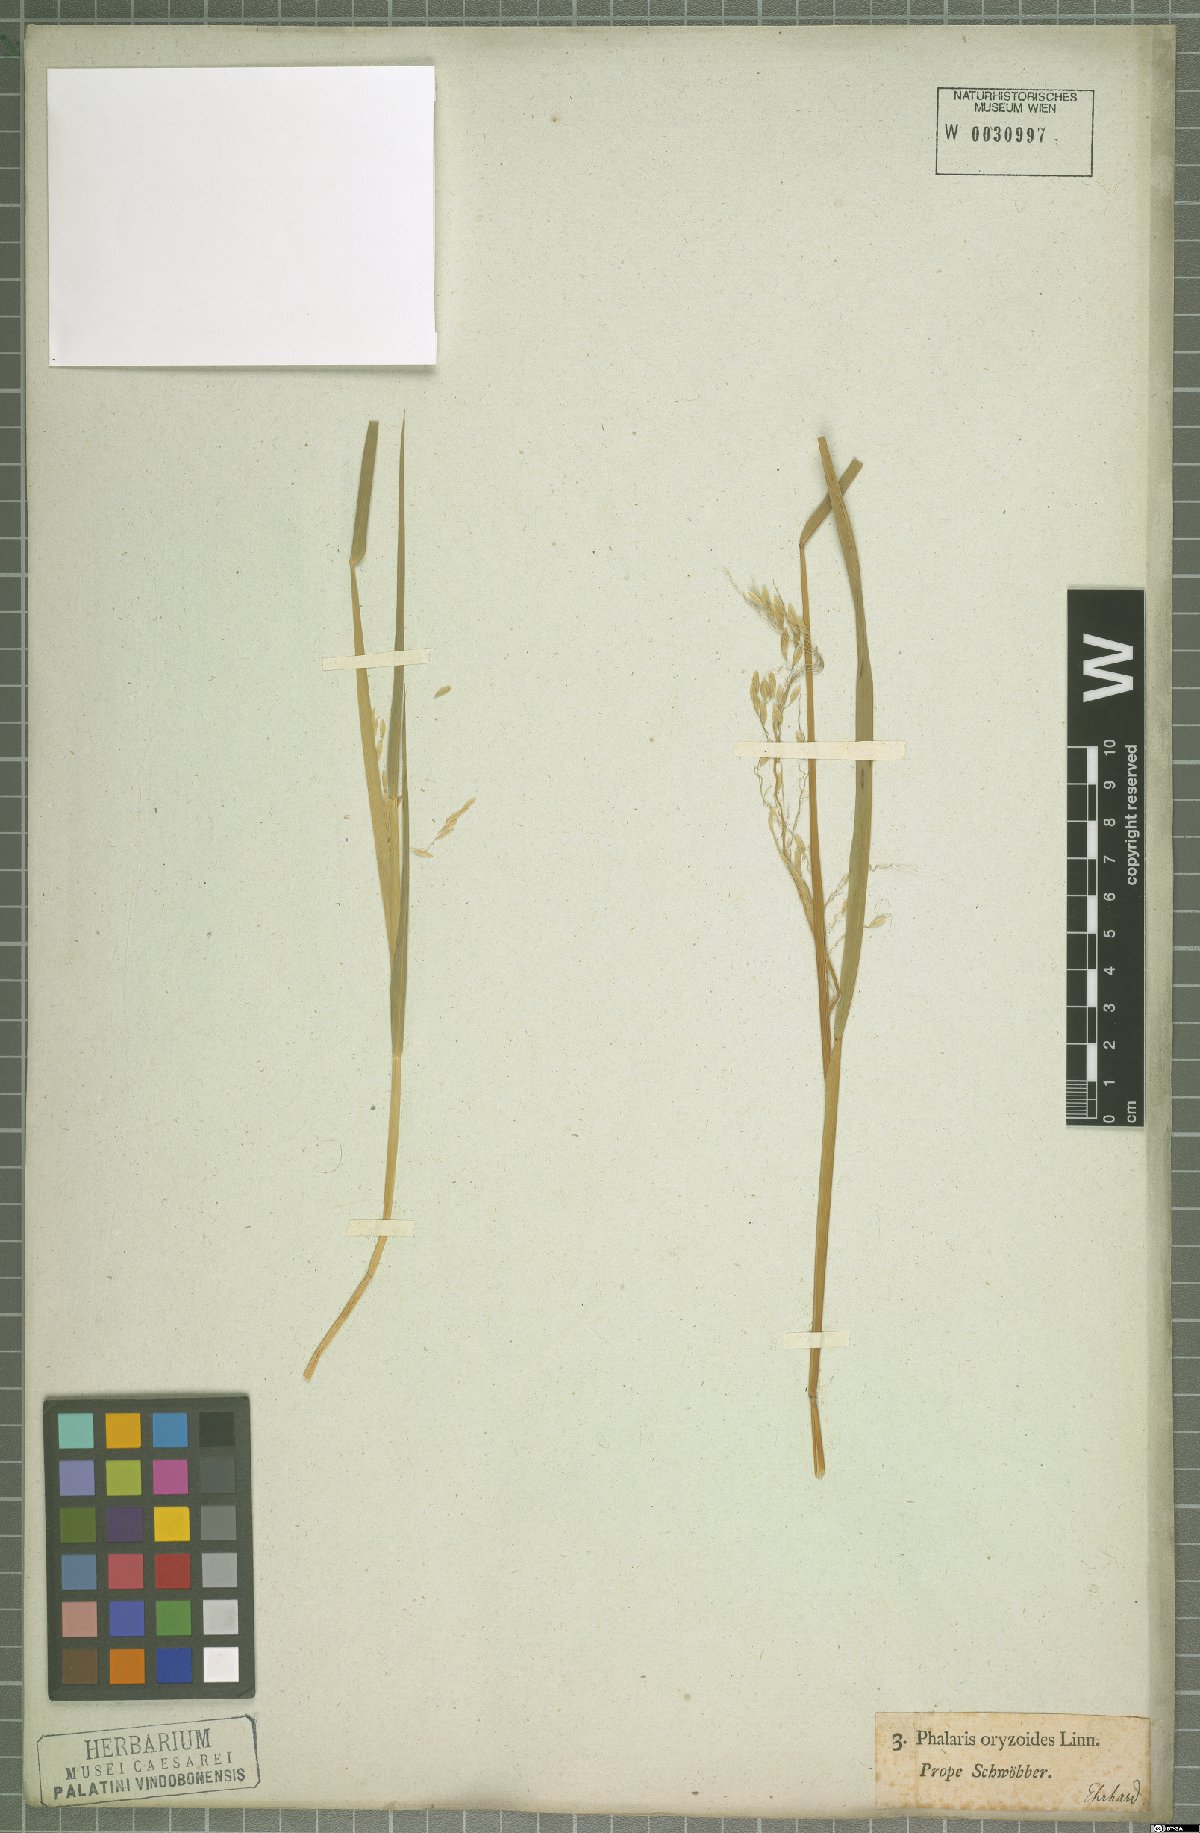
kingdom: Plantae
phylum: Tracheophyta
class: Liliopsida
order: Poales
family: Poaceae
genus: Leersia
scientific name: Leersia oryzoides
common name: Cut-grass
